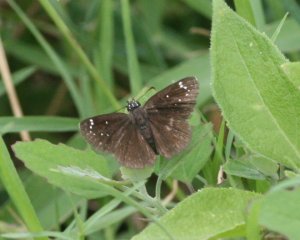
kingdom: Animalia
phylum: Arthropoda
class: Insecta
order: Lepidoptera
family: Hesperiidae
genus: Pholisora
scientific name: Pholisora catullus
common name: Common Sootywing
